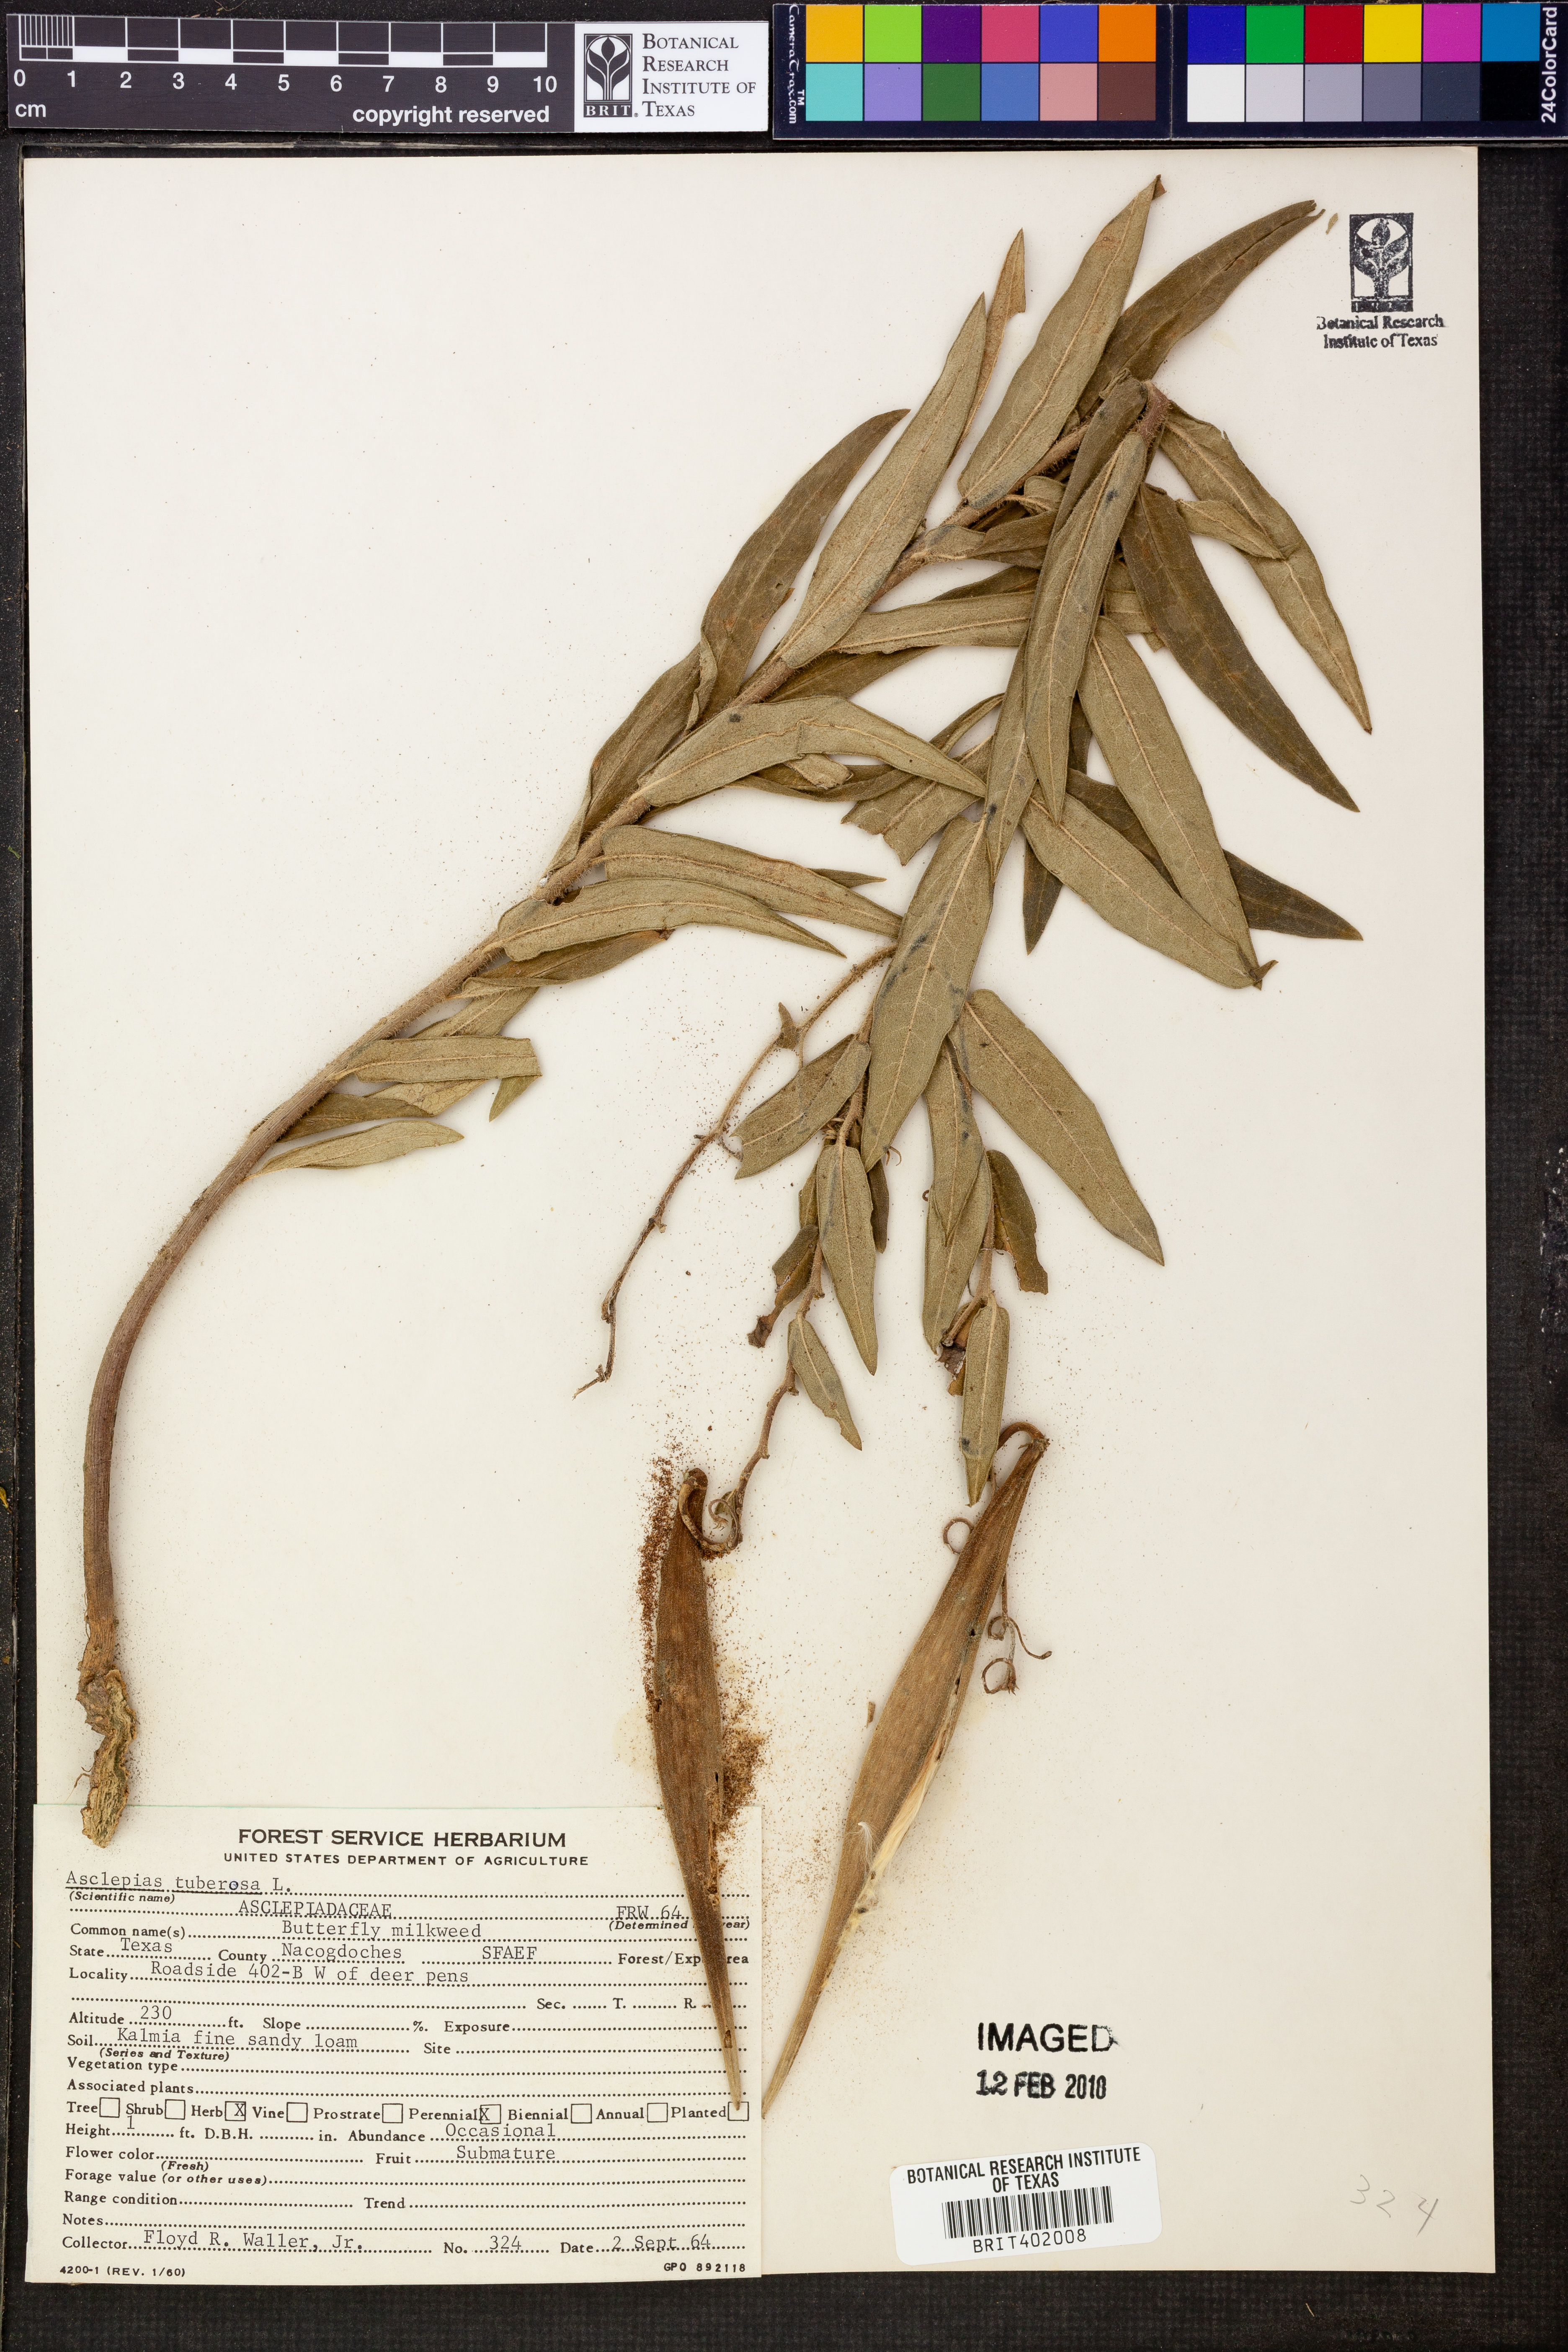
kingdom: Plantae
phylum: Tracheophyta
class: Magnoliopsida
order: Gentianales
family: Apocynaceae
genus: Asclepias
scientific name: Asclepias tuberosa
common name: Butterfly milkweed
